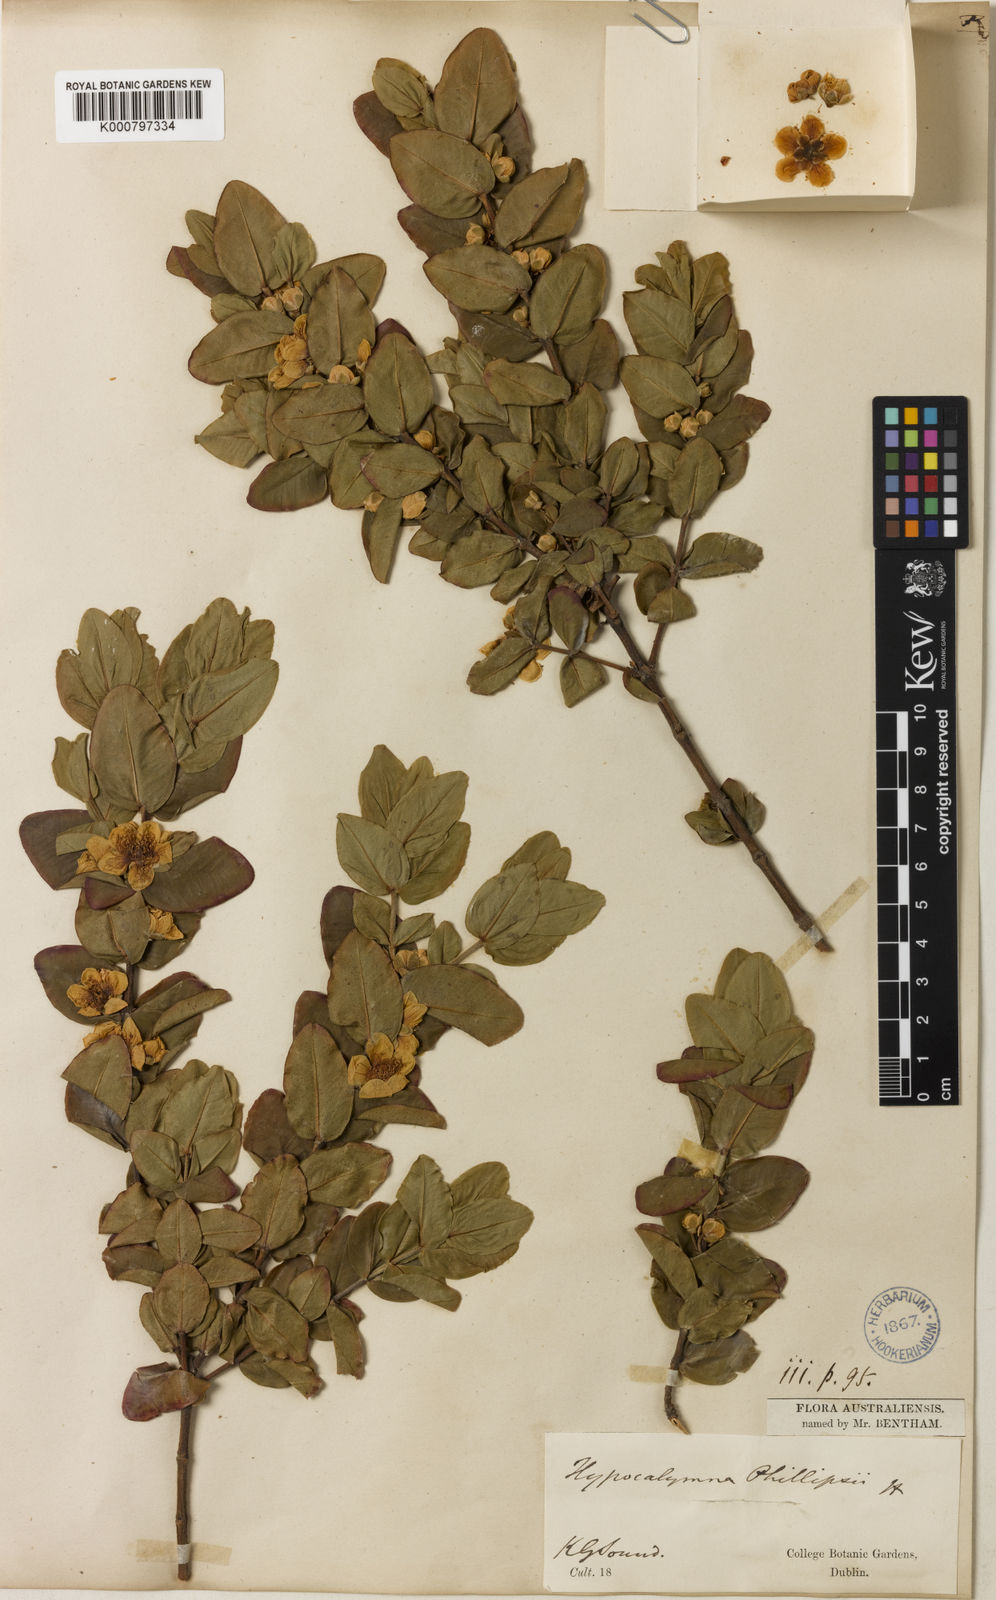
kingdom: Plantae
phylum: Tracheophyta
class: Magnoliopsida
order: Myrtales
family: Myrtaceae
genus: Hypocalymma
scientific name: Hypocalymma phillipsii
